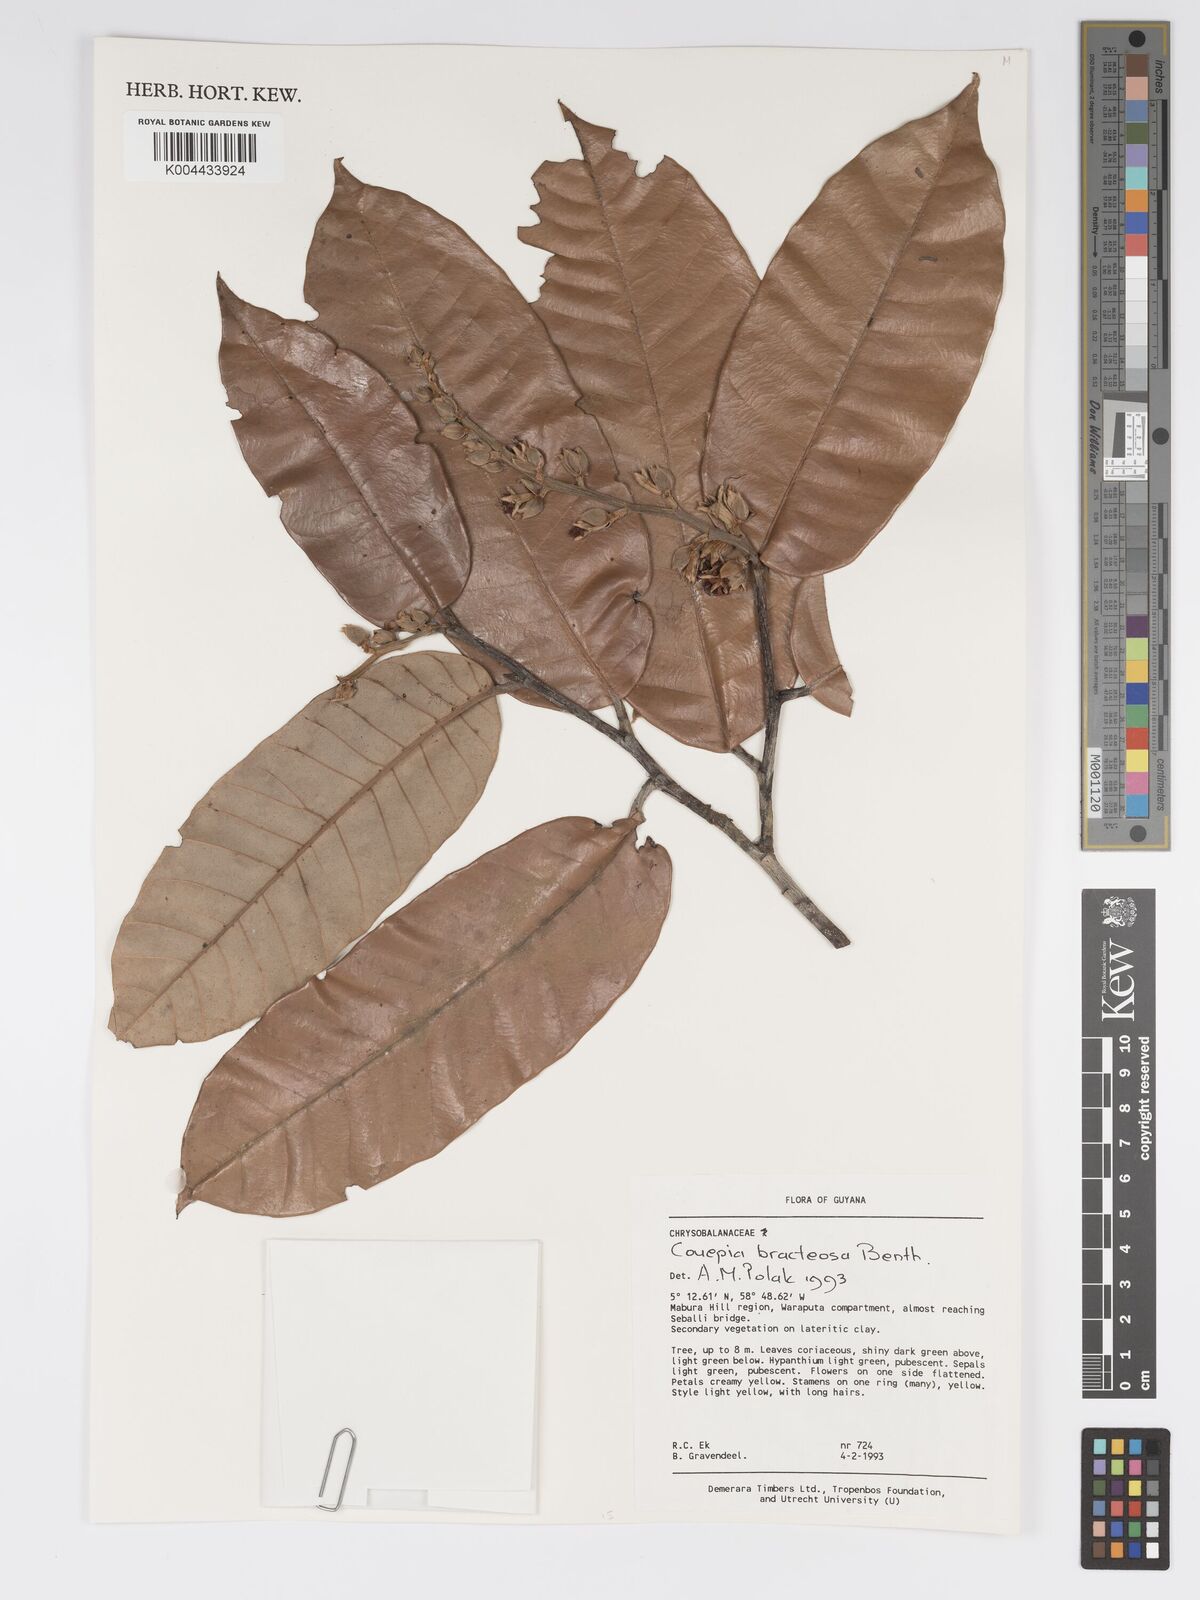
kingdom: Plantae
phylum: Tracheophyta
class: Magnoliopsida
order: Malpighiales
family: Chrysobalanaceae
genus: Couepia
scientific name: Couepia bracteosa
